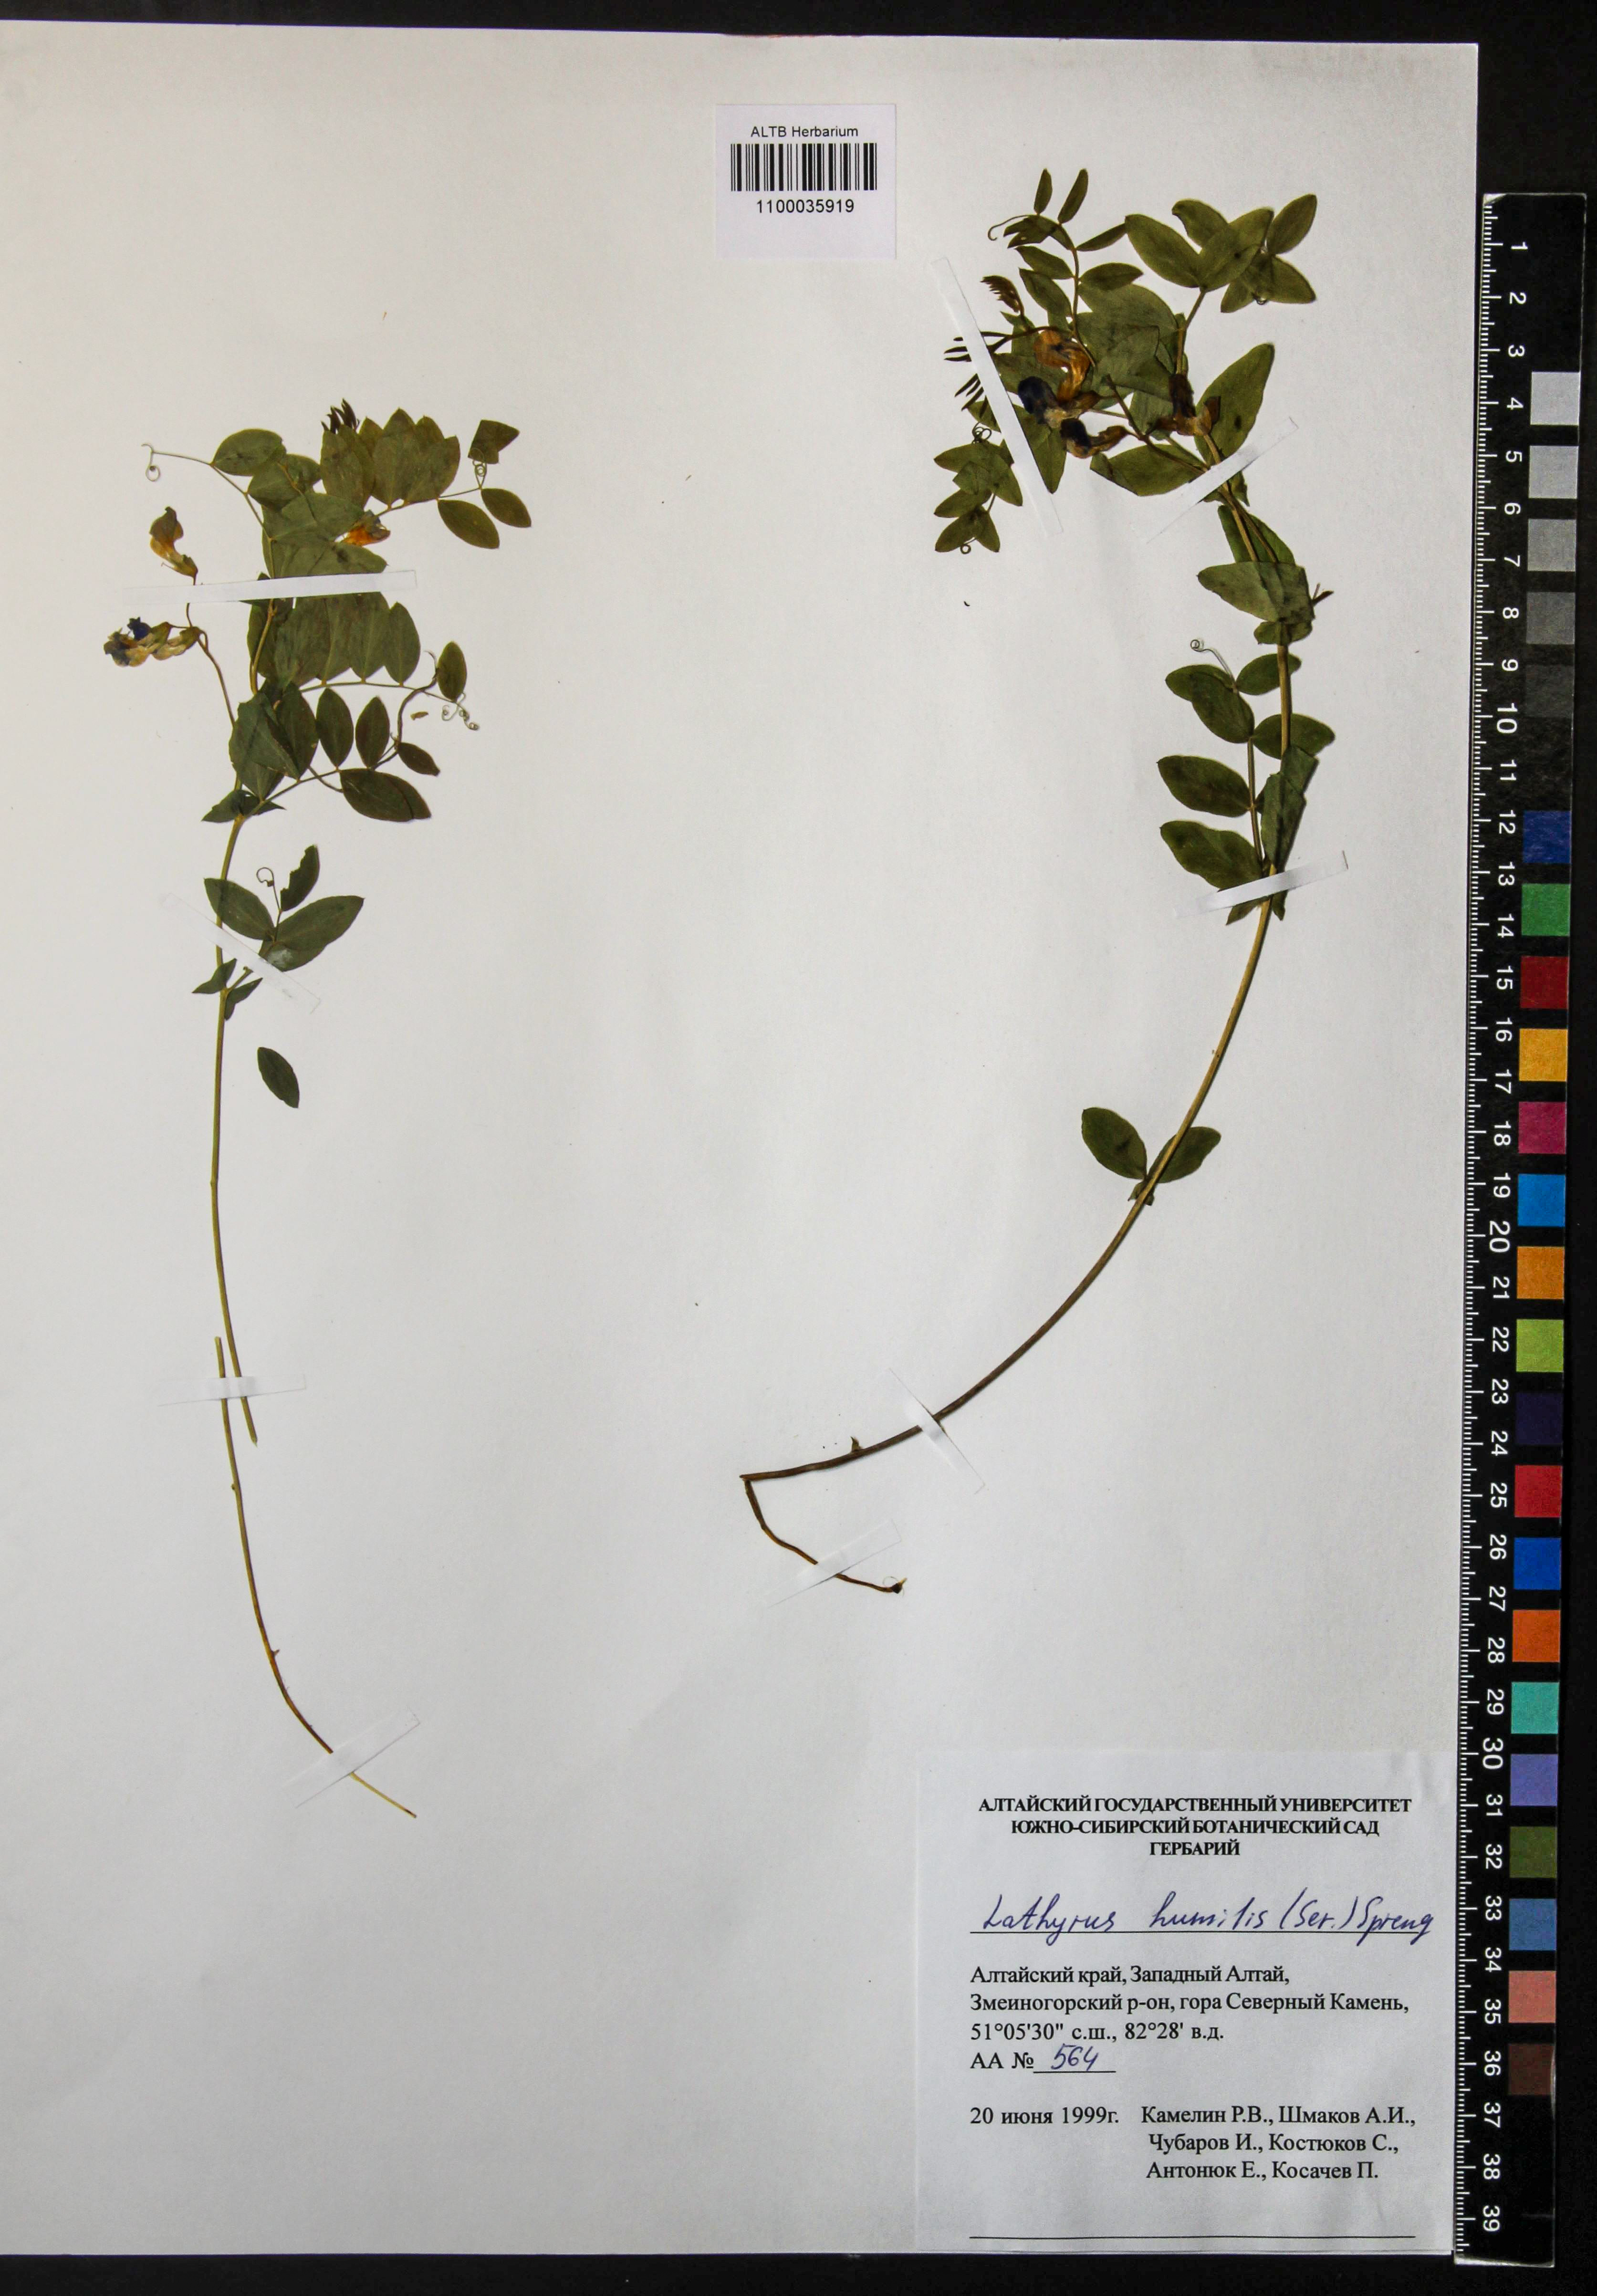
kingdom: Plantae
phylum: Tracheophyta
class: Magnoliopsida
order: Fabales
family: Fabaceae
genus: Lathyrus
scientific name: Lathyrus humilis
